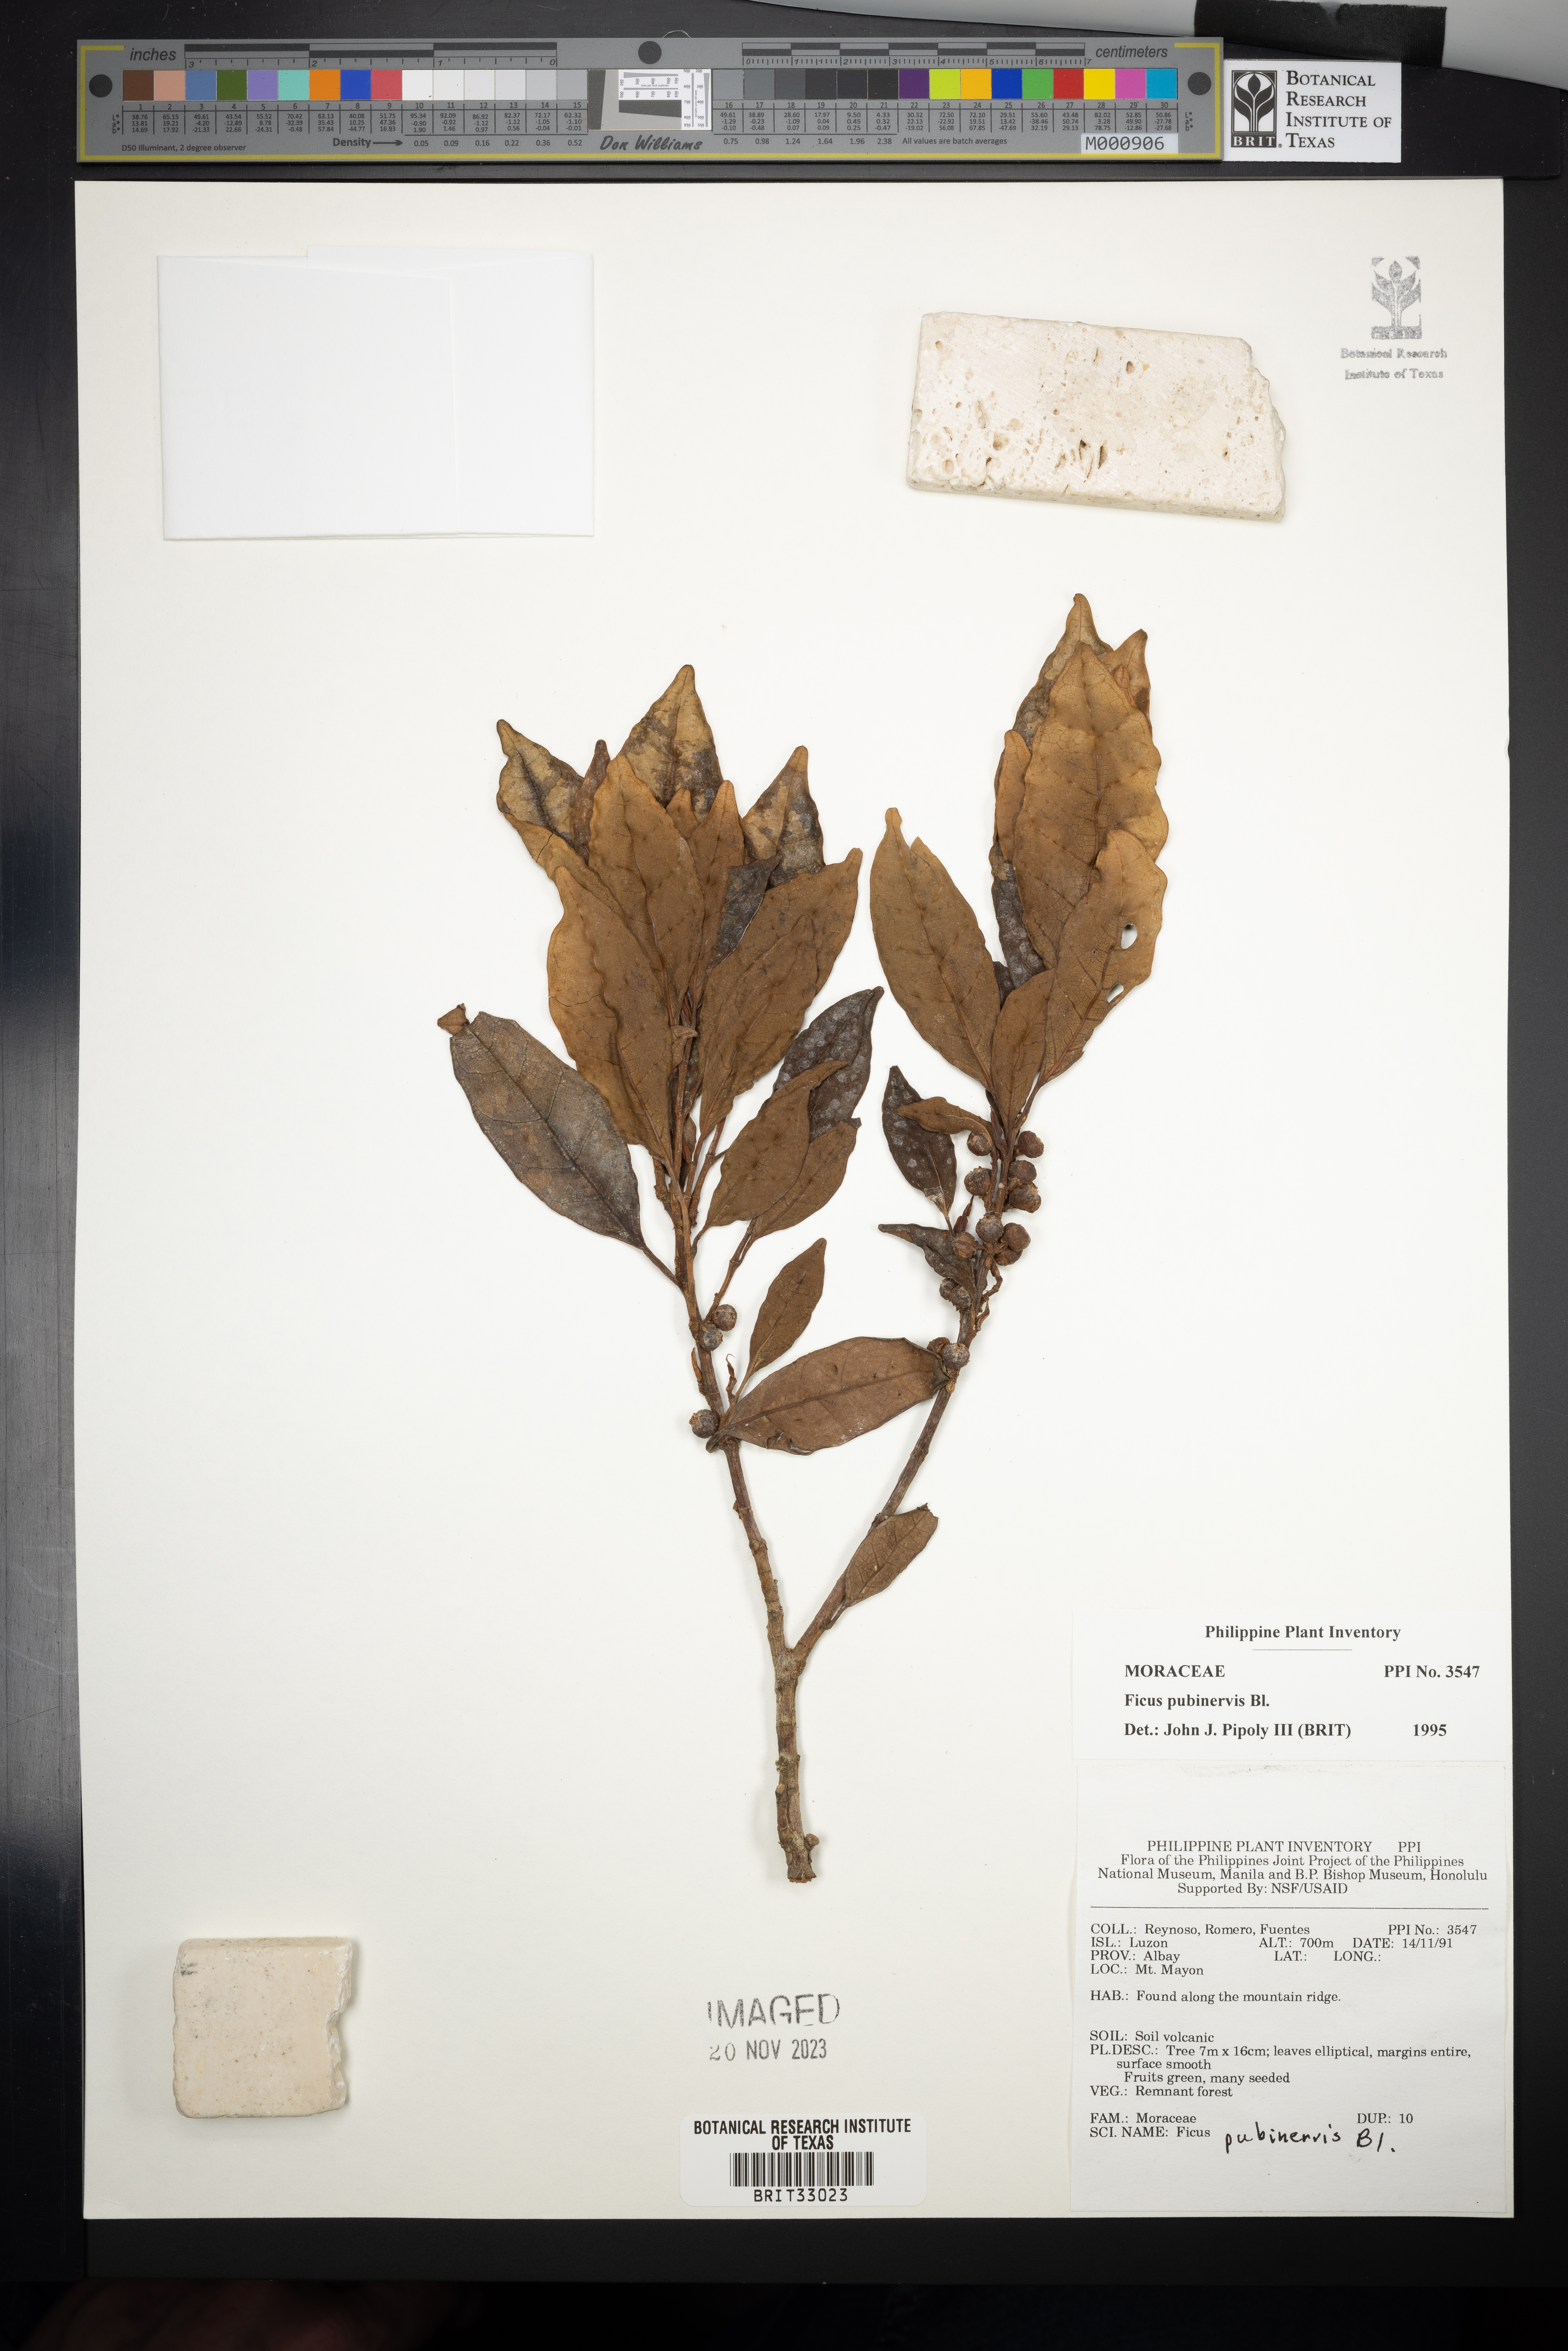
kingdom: Plantae
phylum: Tracheophyta
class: Magnoliopsida
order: Rosales
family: Moraceae
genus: Ficus
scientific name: Ficus nervosa
